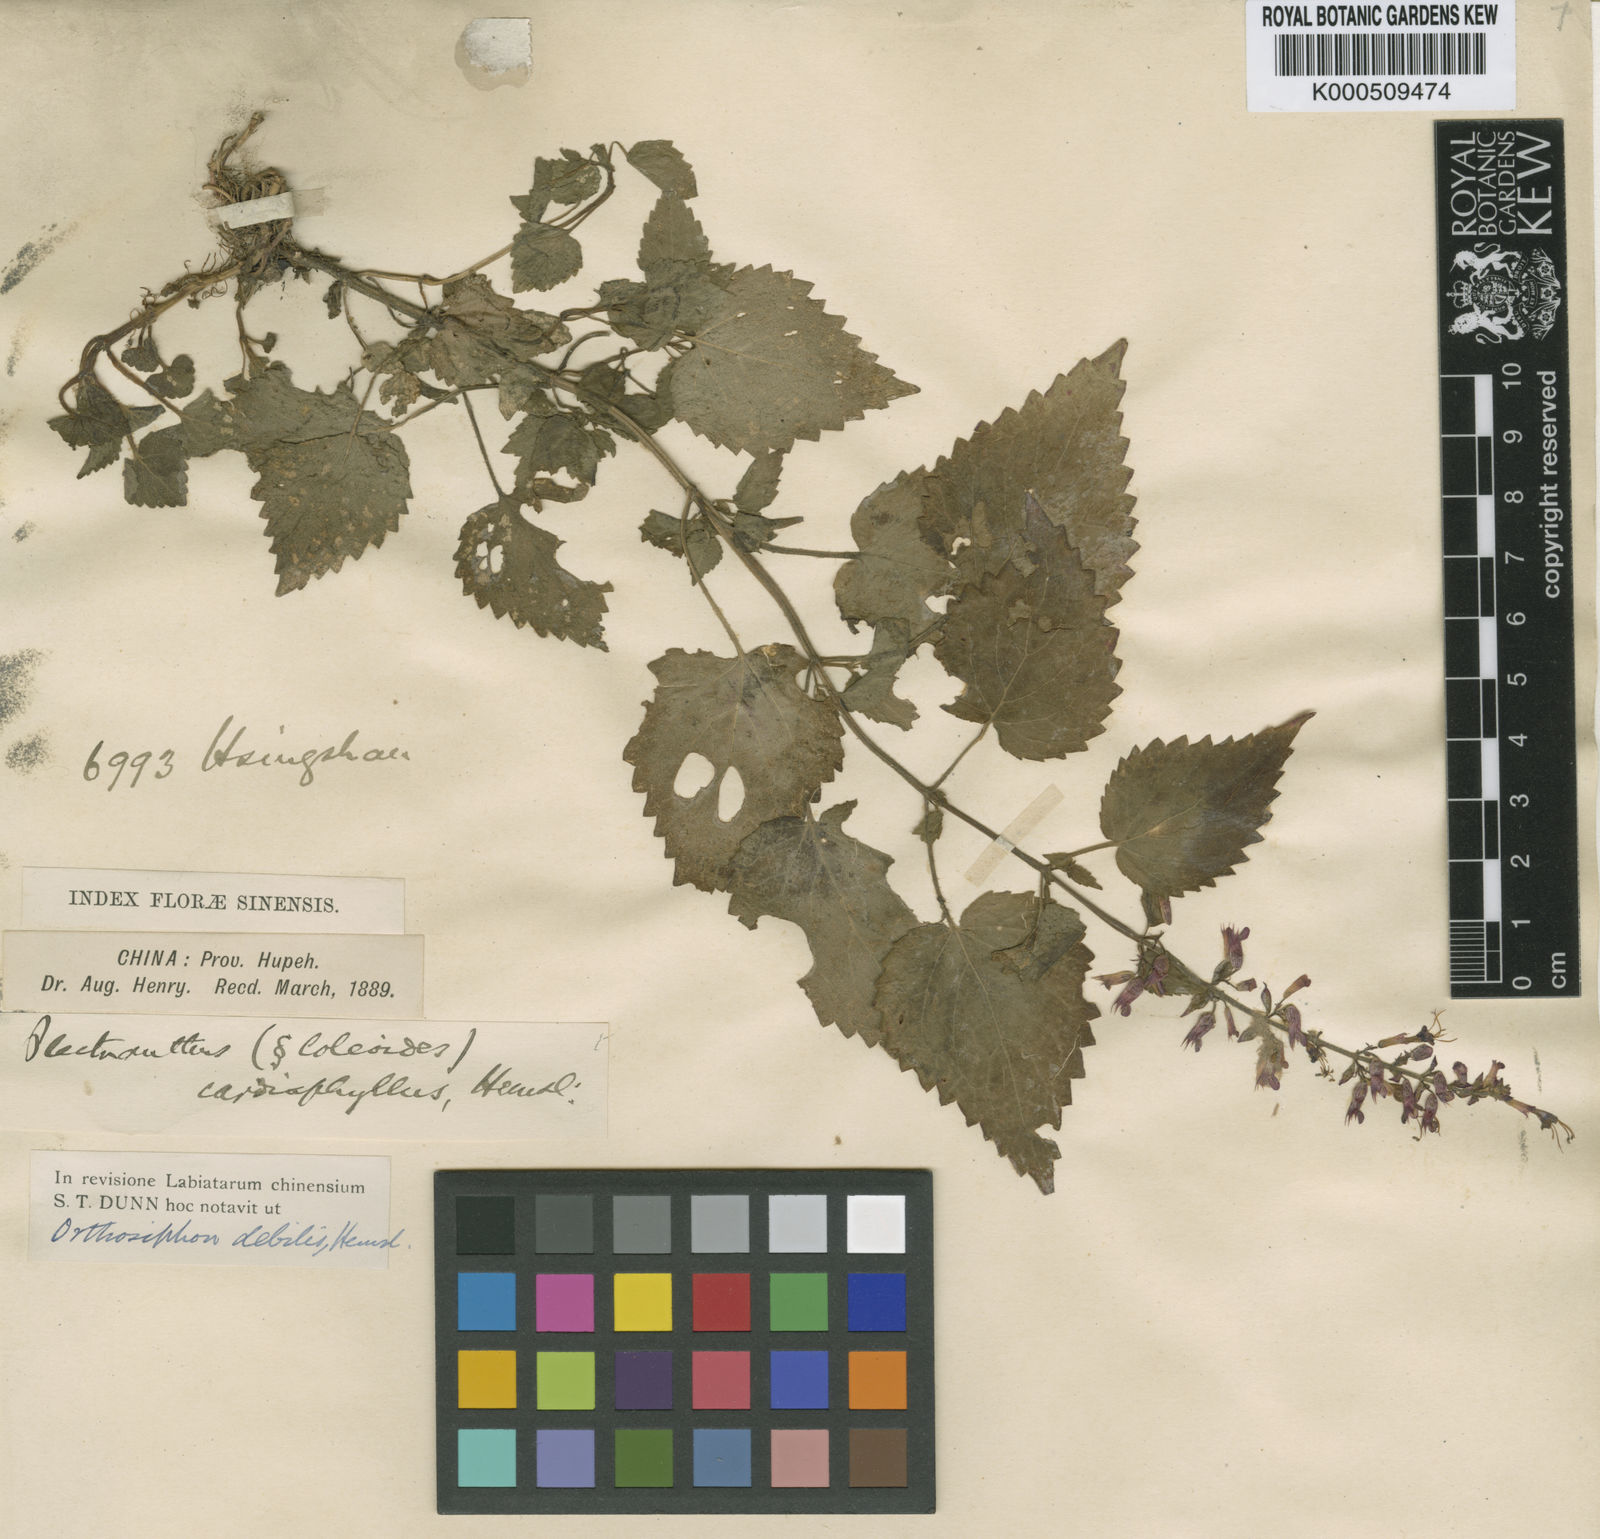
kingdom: Plantae
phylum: Tracheophyta
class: Magnoliopsida
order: Lamiales
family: Lamiaceae
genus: Heterolamium
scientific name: Heterolamium debile
